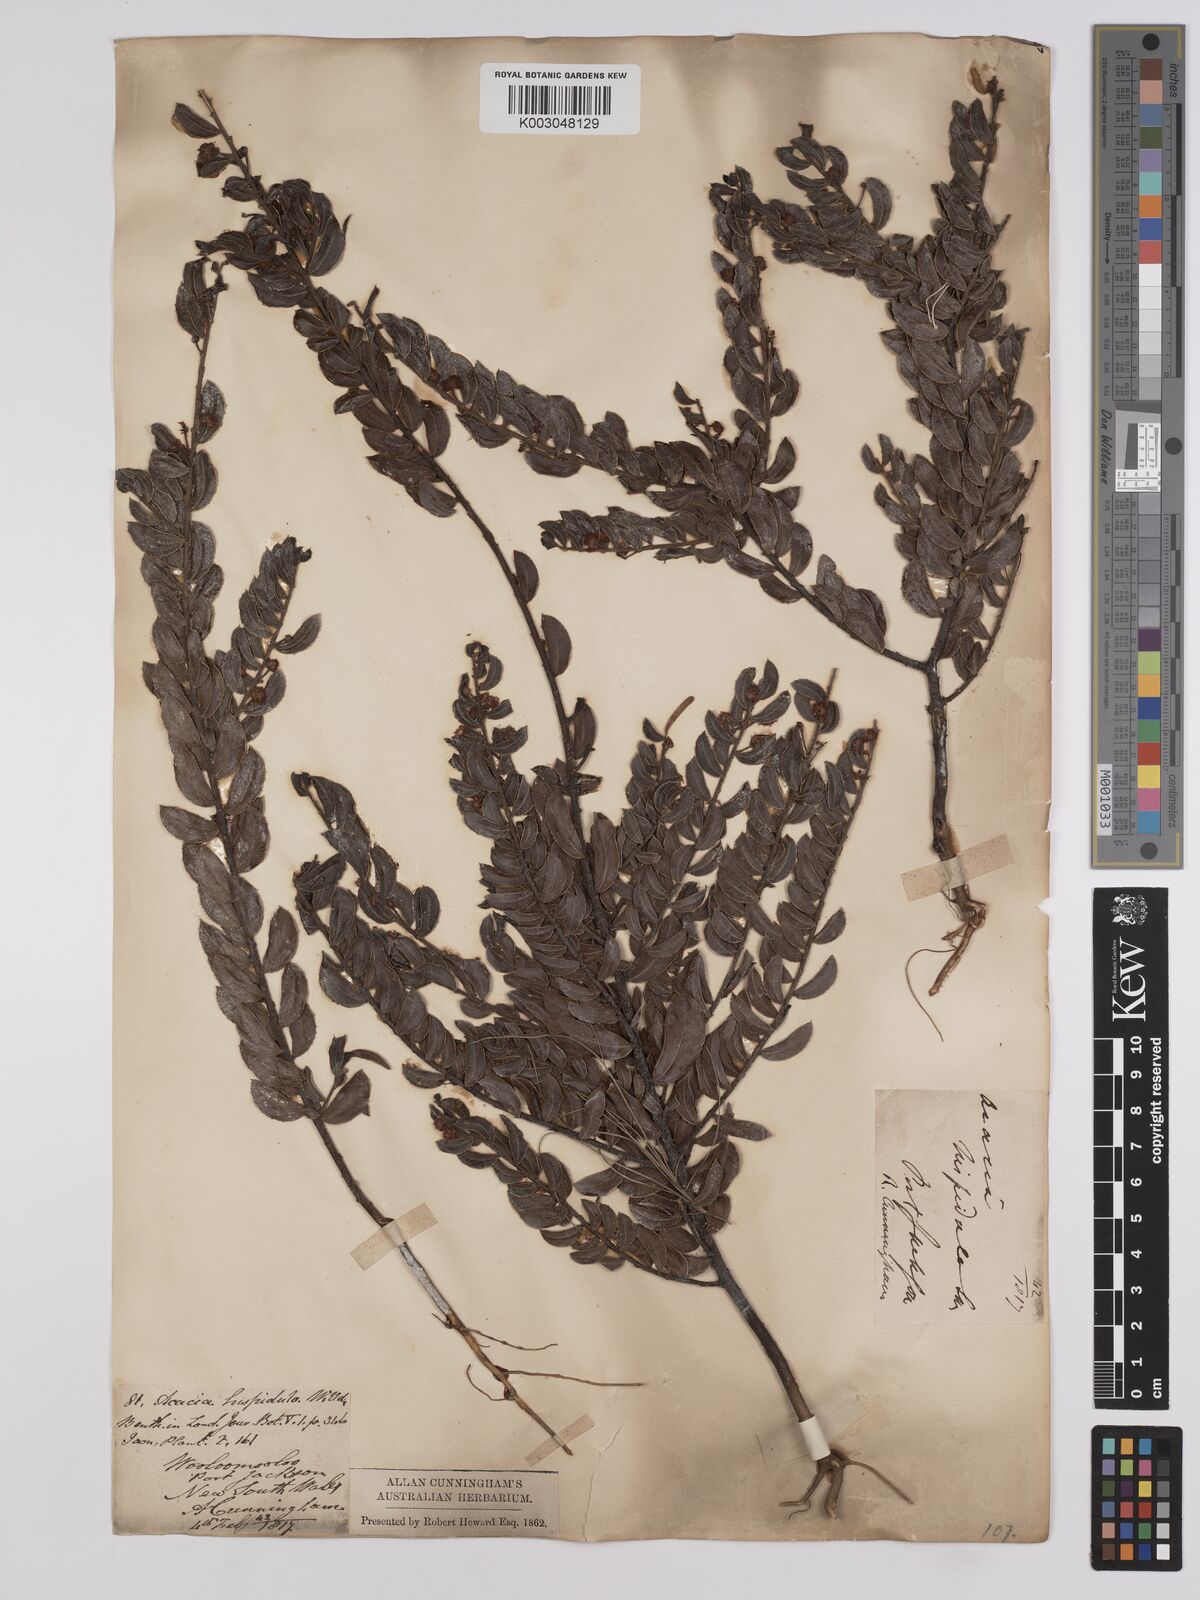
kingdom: Plantae
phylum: Tracheophyta
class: Magnoliopsida
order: Fabales
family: Fabaceae
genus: Acacia
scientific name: Acacia hispidula
